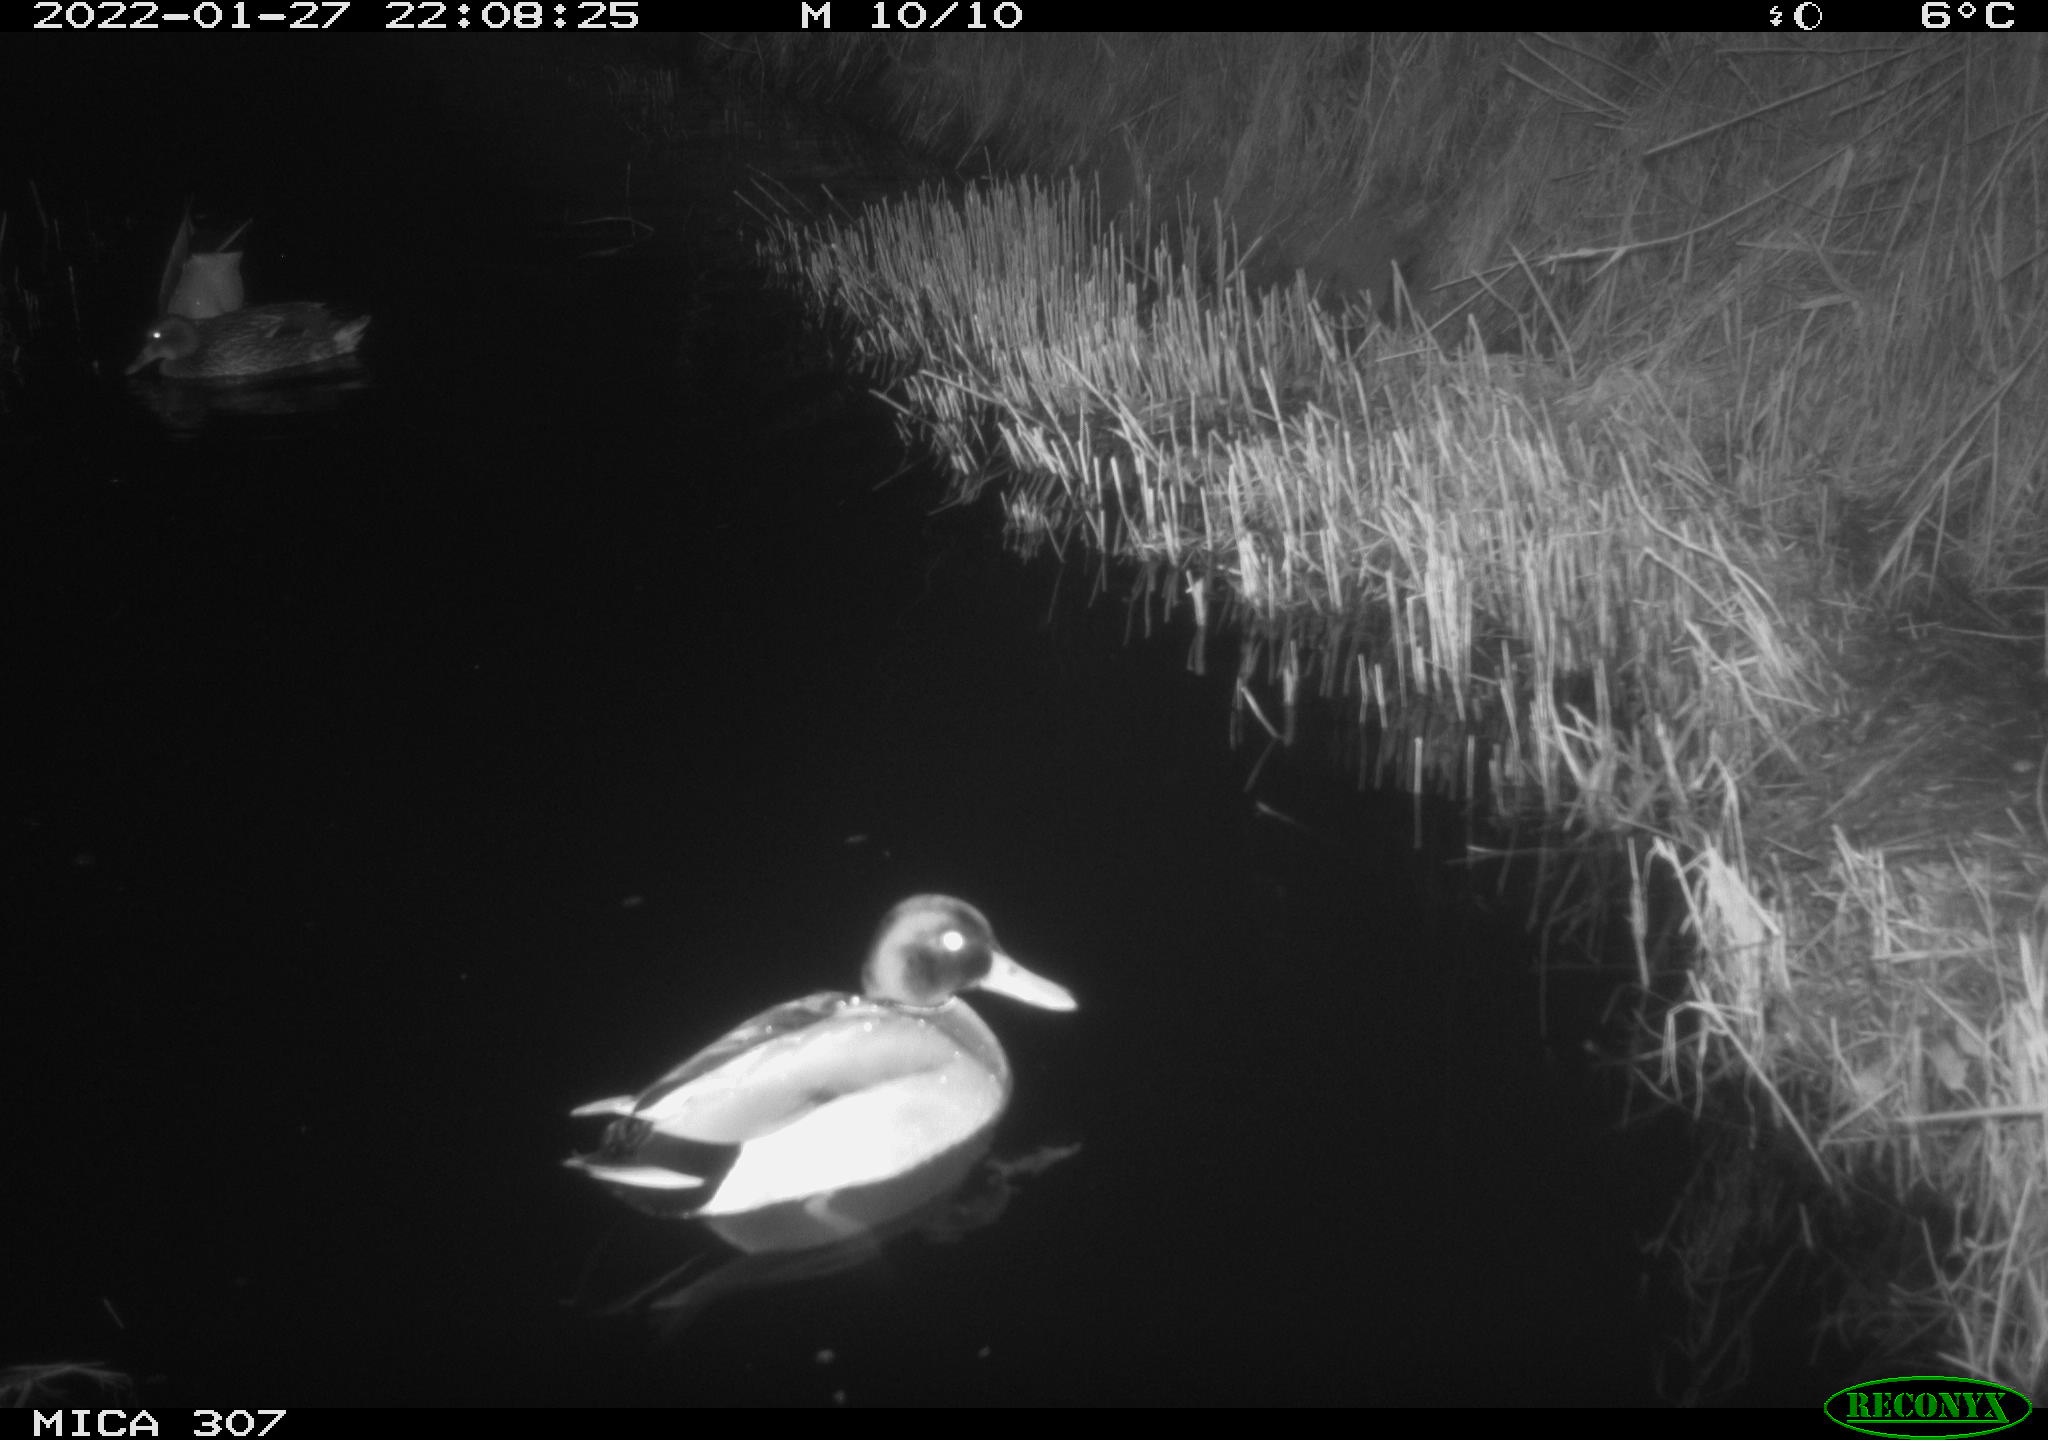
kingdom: Animalia
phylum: Chordata
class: Aves
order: Anseriformes
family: Anatidae
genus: Anas
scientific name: Anas
